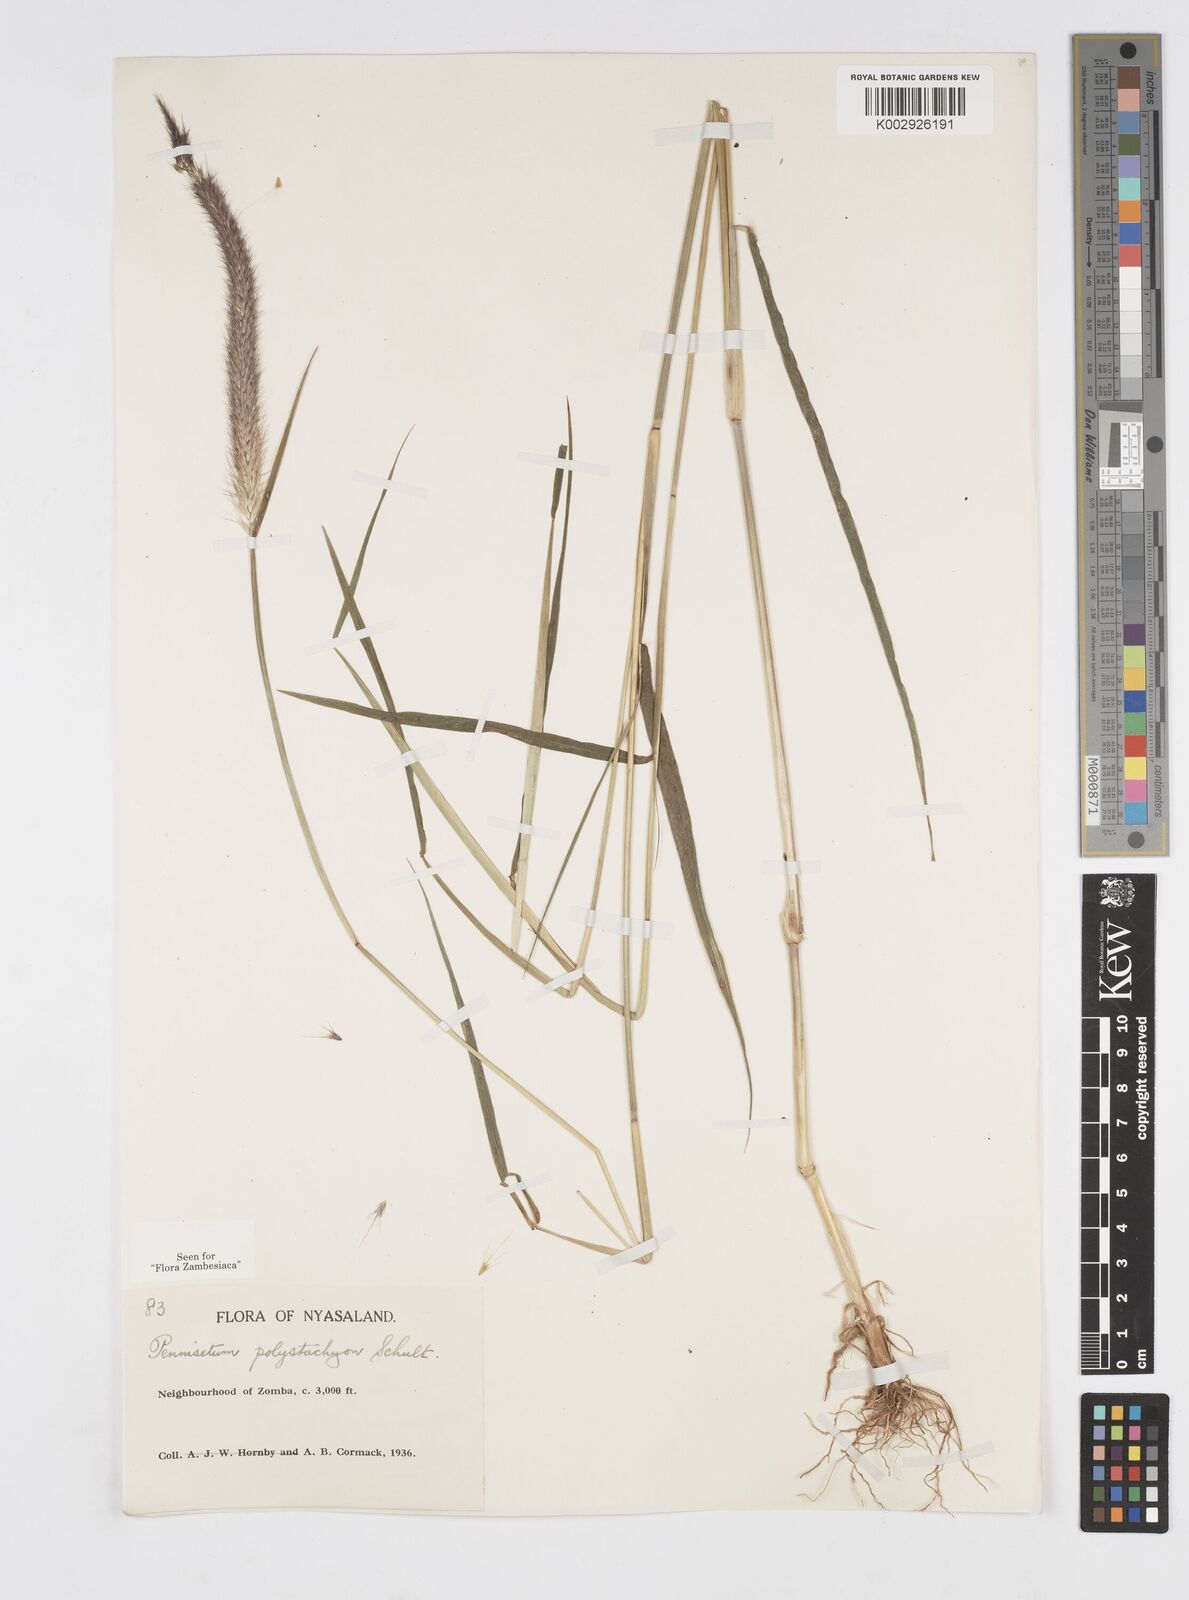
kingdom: Plantae
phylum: Tracheophyta
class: Liliopsida
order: Poales
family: Poaceae
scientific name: Poaceae
